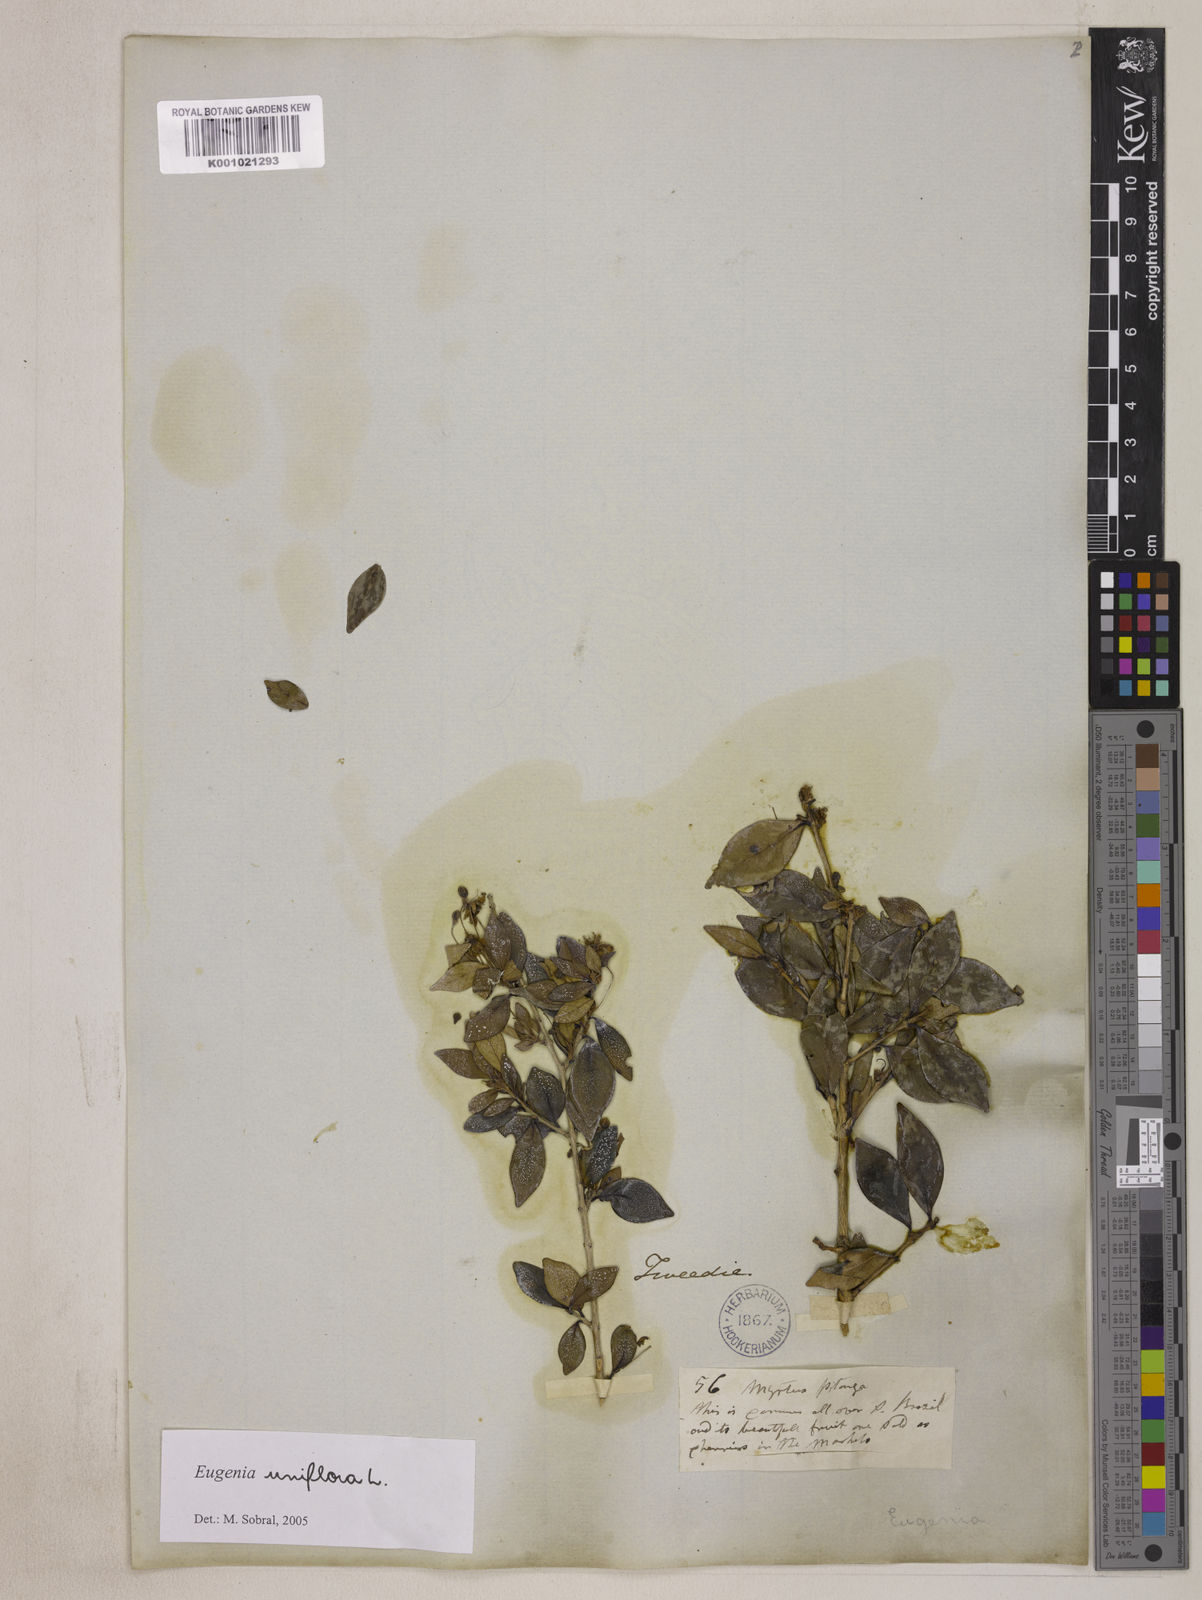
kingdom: Plantae
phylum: Tracheophyta
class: Magnoliopsida
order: Myrtales
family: Myrtaceae
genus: Eugenia
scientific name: Eugenia uniflora
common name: Surinam cherry
